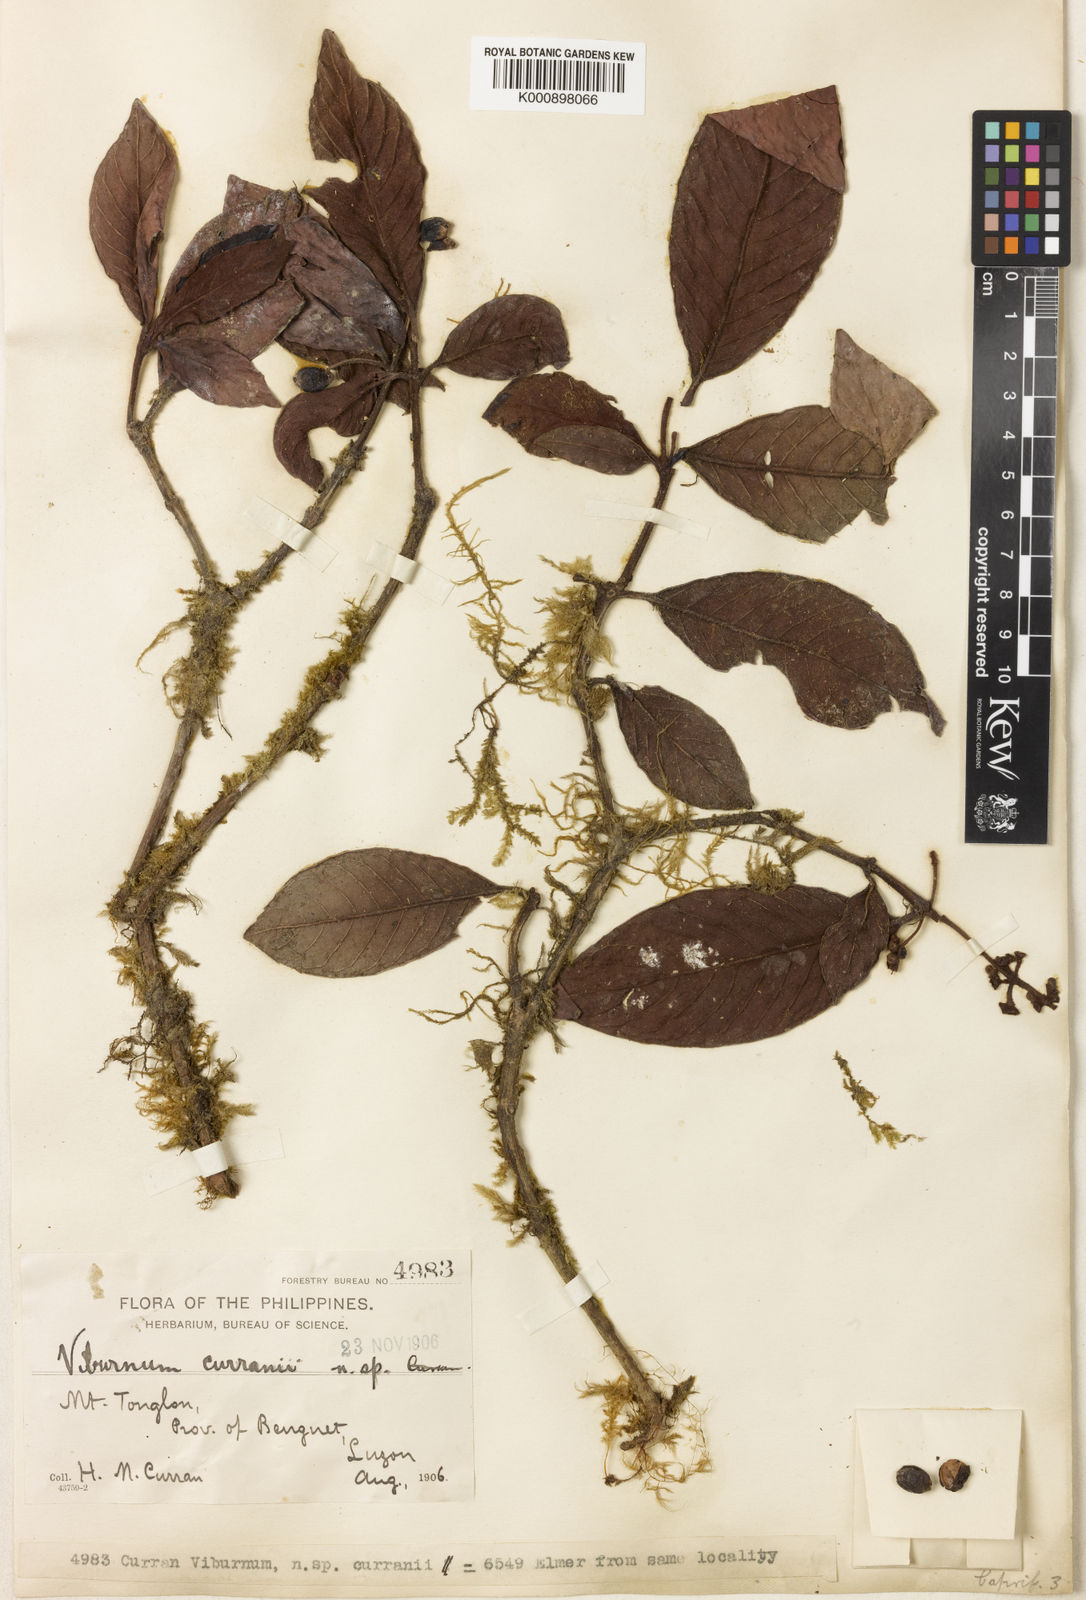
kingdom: Plantae
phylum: Tracheophyta
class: Magnoliopsida
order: Dipsacales
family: Viburnaceae
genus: Viburnum
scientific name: Viburnum luzonicum
